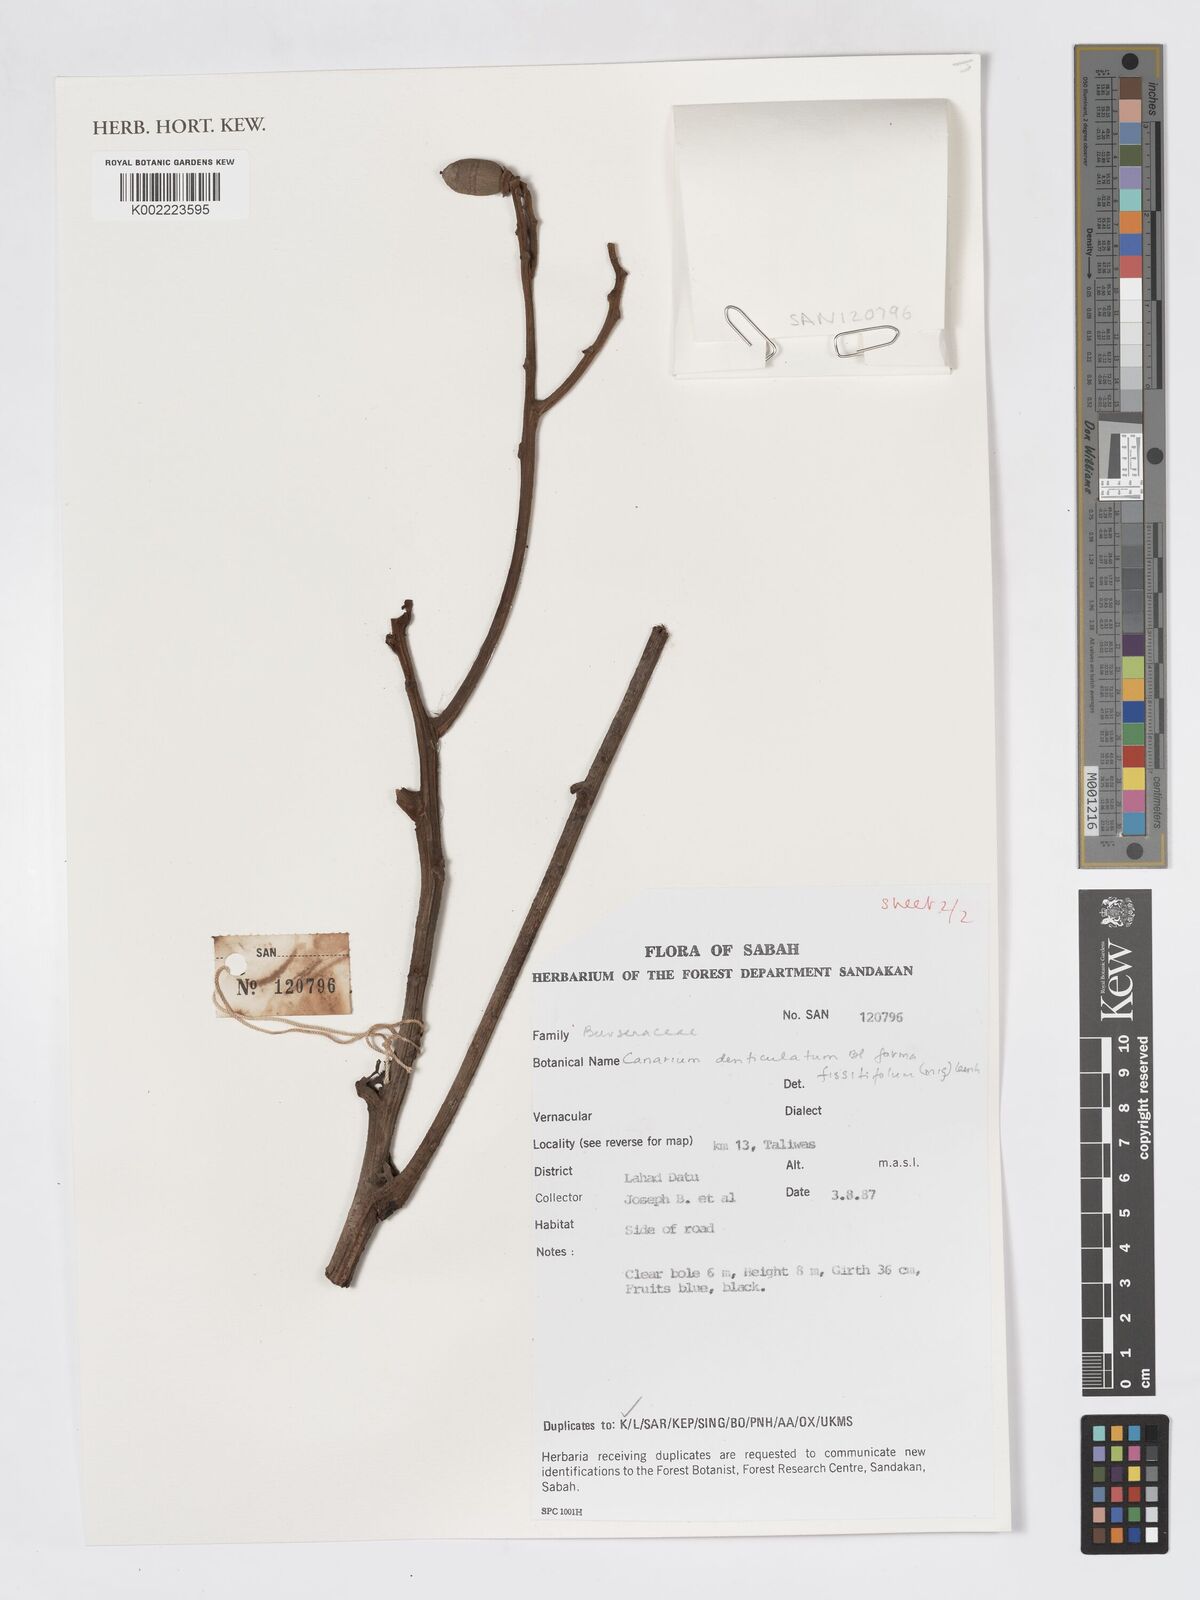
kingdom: Plantae
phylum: Tracheophyta
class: Magnoliopsida
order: Sapindales
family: Burseraceae
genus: Canarium
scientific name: Canarium denticulatum
